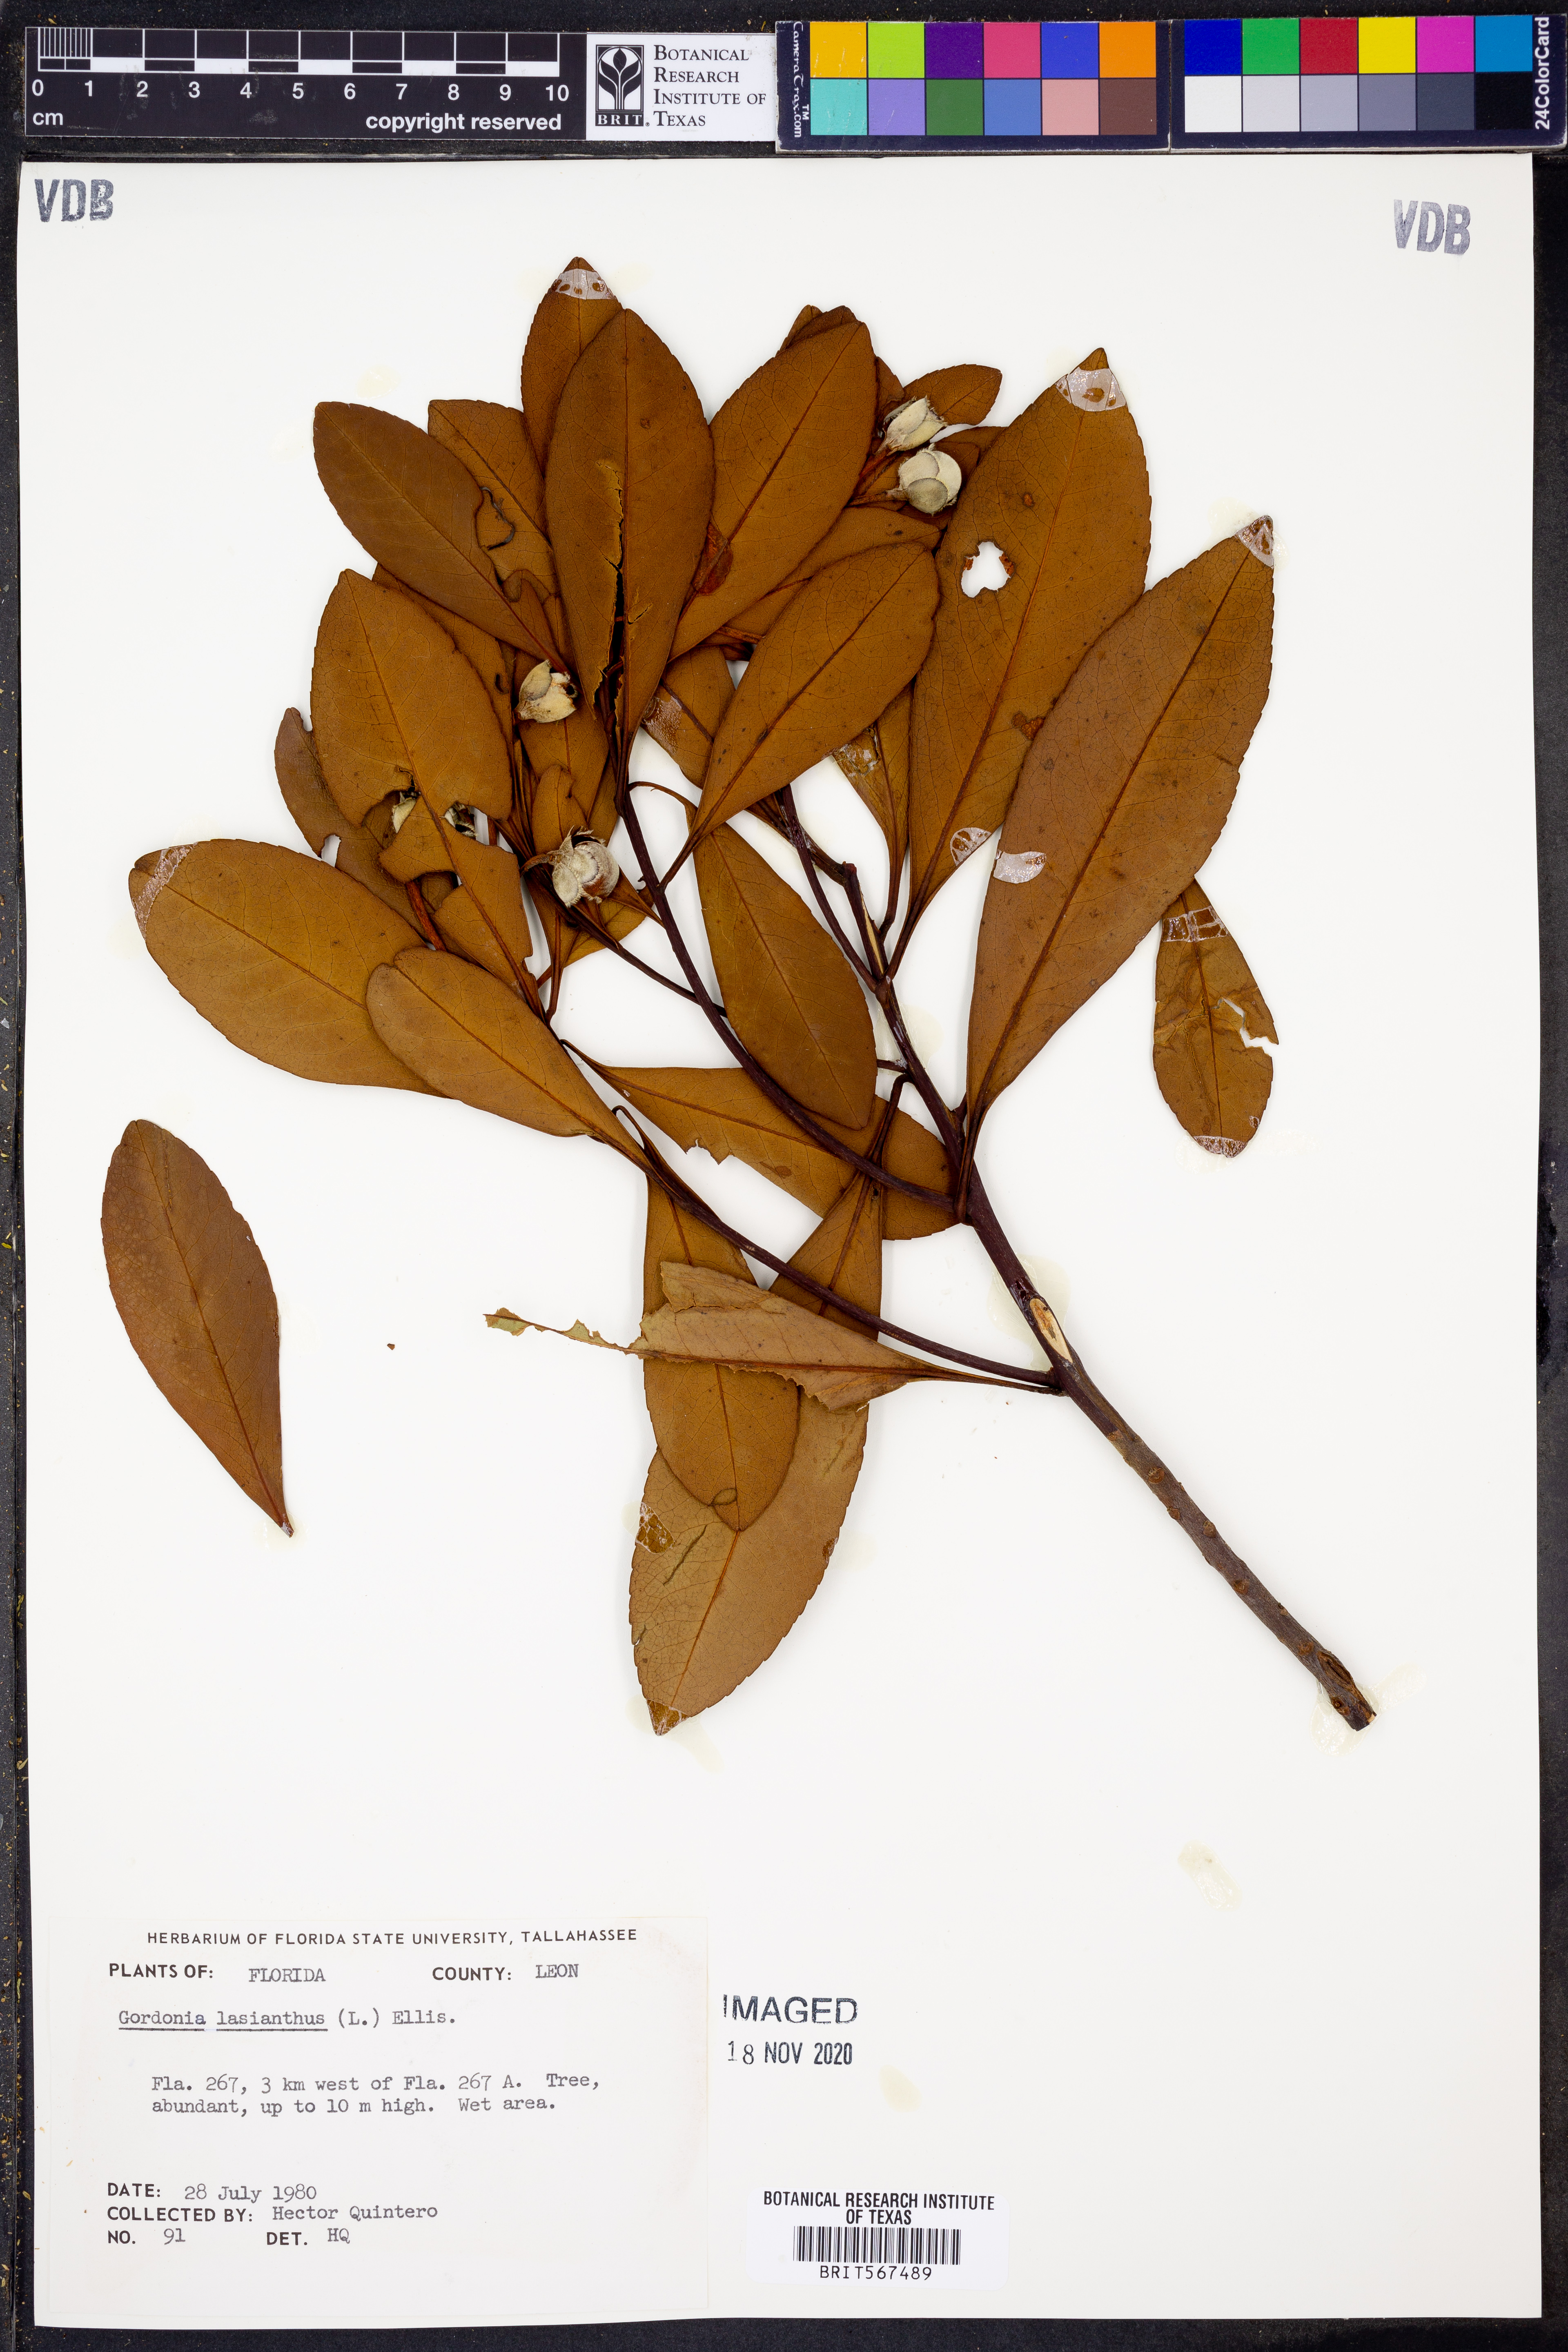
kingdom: Plantae
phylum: Tracheophyta
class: Magnoliopsida
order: Ericales
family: Theaceae
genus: Gordonia
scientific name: Gordonia lasianthus
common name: Loblolly bay
